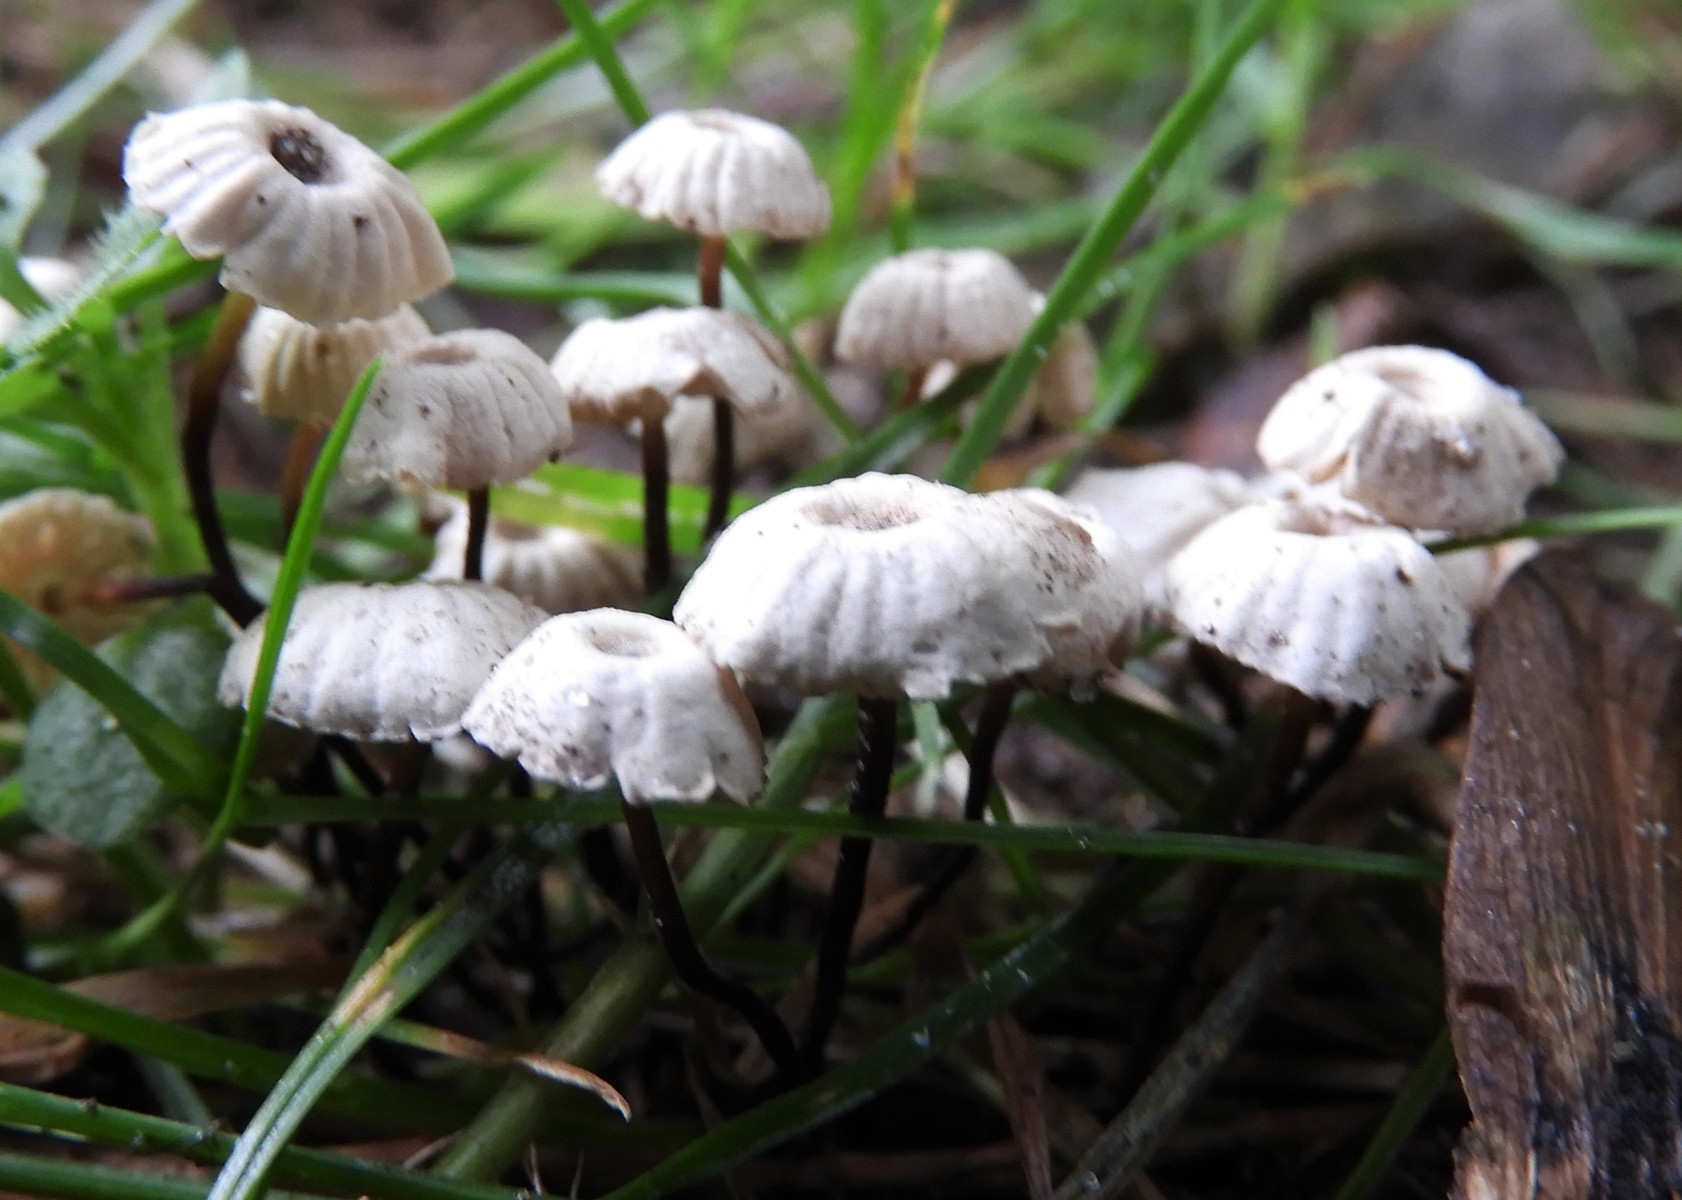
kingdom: Fungi
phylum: Basidiomycota
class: Agaricomycetes
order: Agaricales
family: Marasmiaceae
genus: Marasmius
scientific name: Marasmius rotula
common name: hjul-bruskhat
